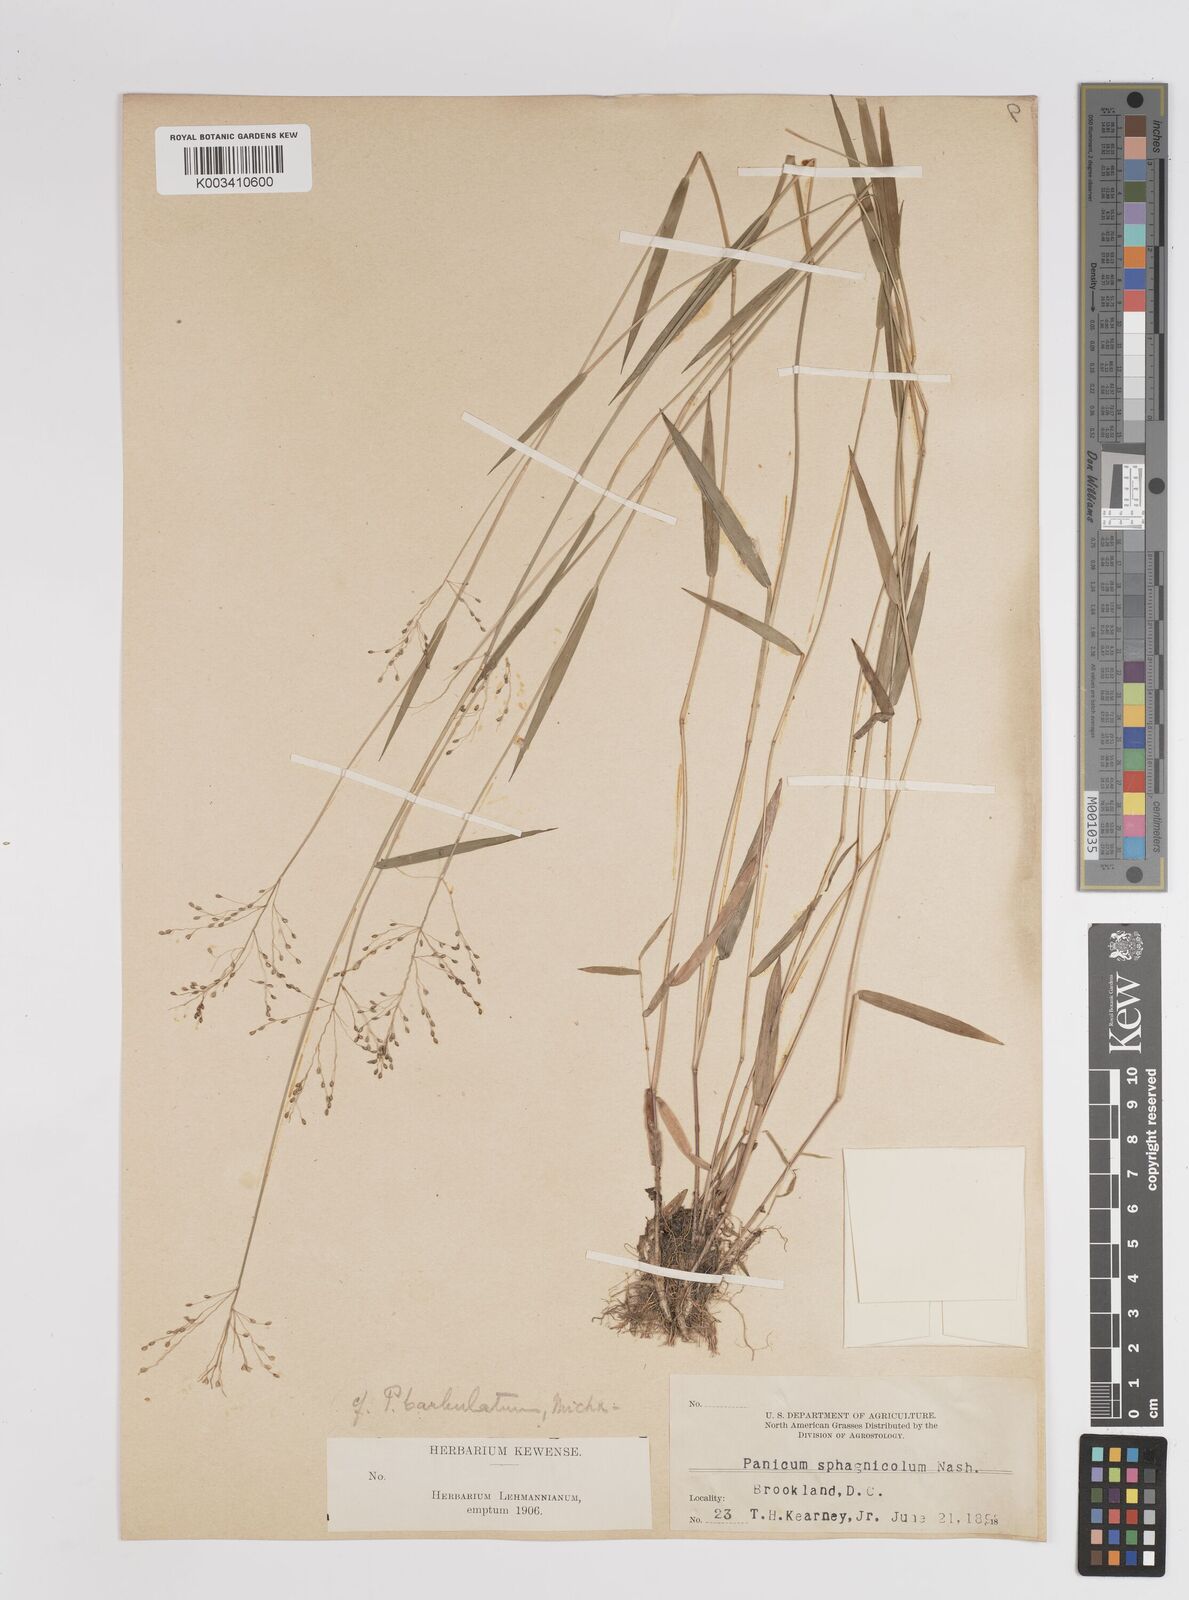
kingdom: Plantae
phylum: Tracheophyta
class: Liliopsida
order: Poales
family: Poaceae
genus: Dichanthelium
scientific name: Dichanthelium lucidum
